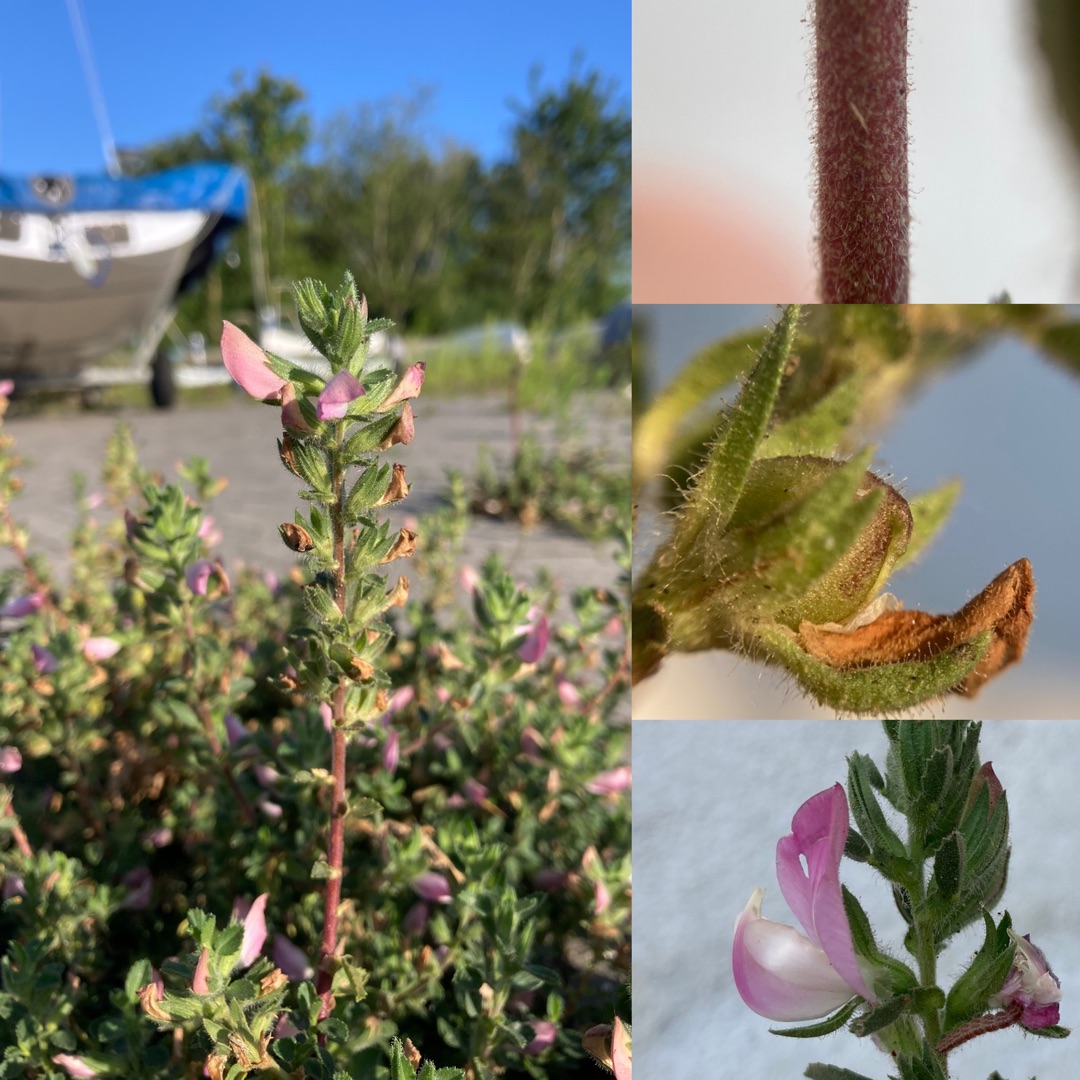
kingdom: Plantae
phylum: Tracheophyta
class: Magnoliopsida
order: Fabales
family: Fabaceae
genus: Ononis
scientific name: Ononis spinosa
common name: Mark-krageklo
